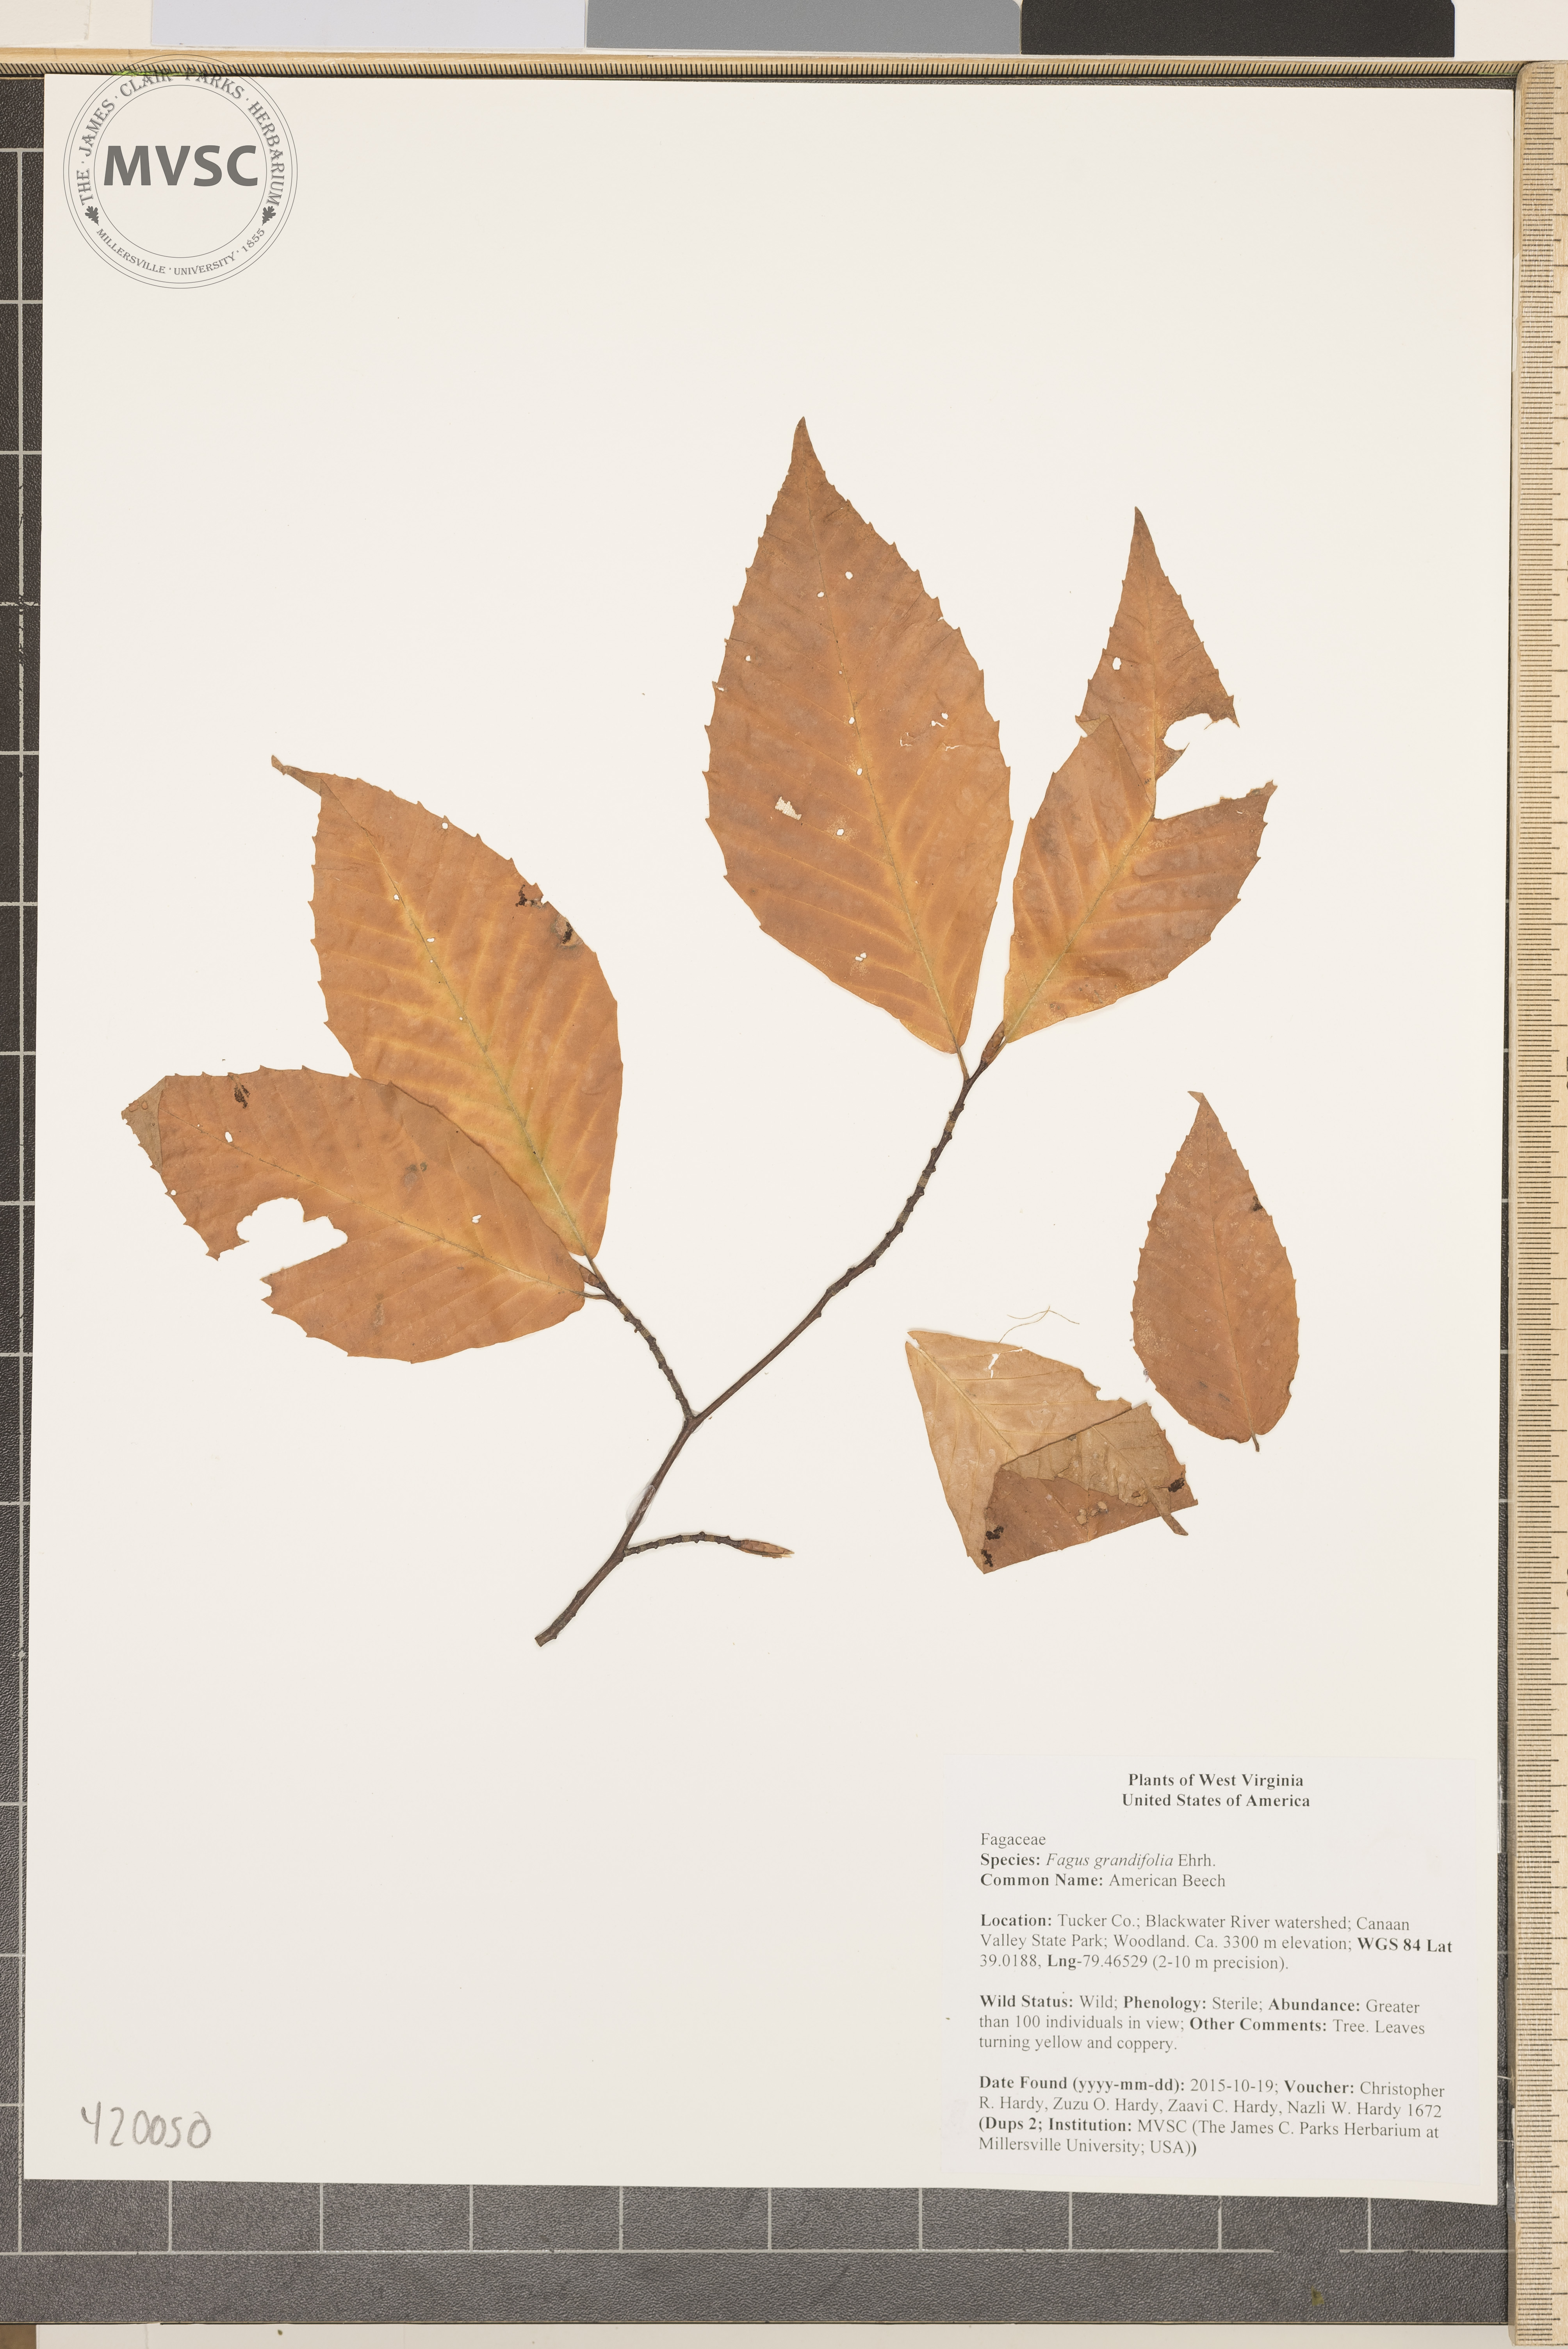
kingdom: Plantae
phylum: Tracheophyta
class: Magnoliopsida
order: Fagales
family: Fagaceae
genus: Fagus
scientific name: Fagus grandifolia
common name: American Beech
